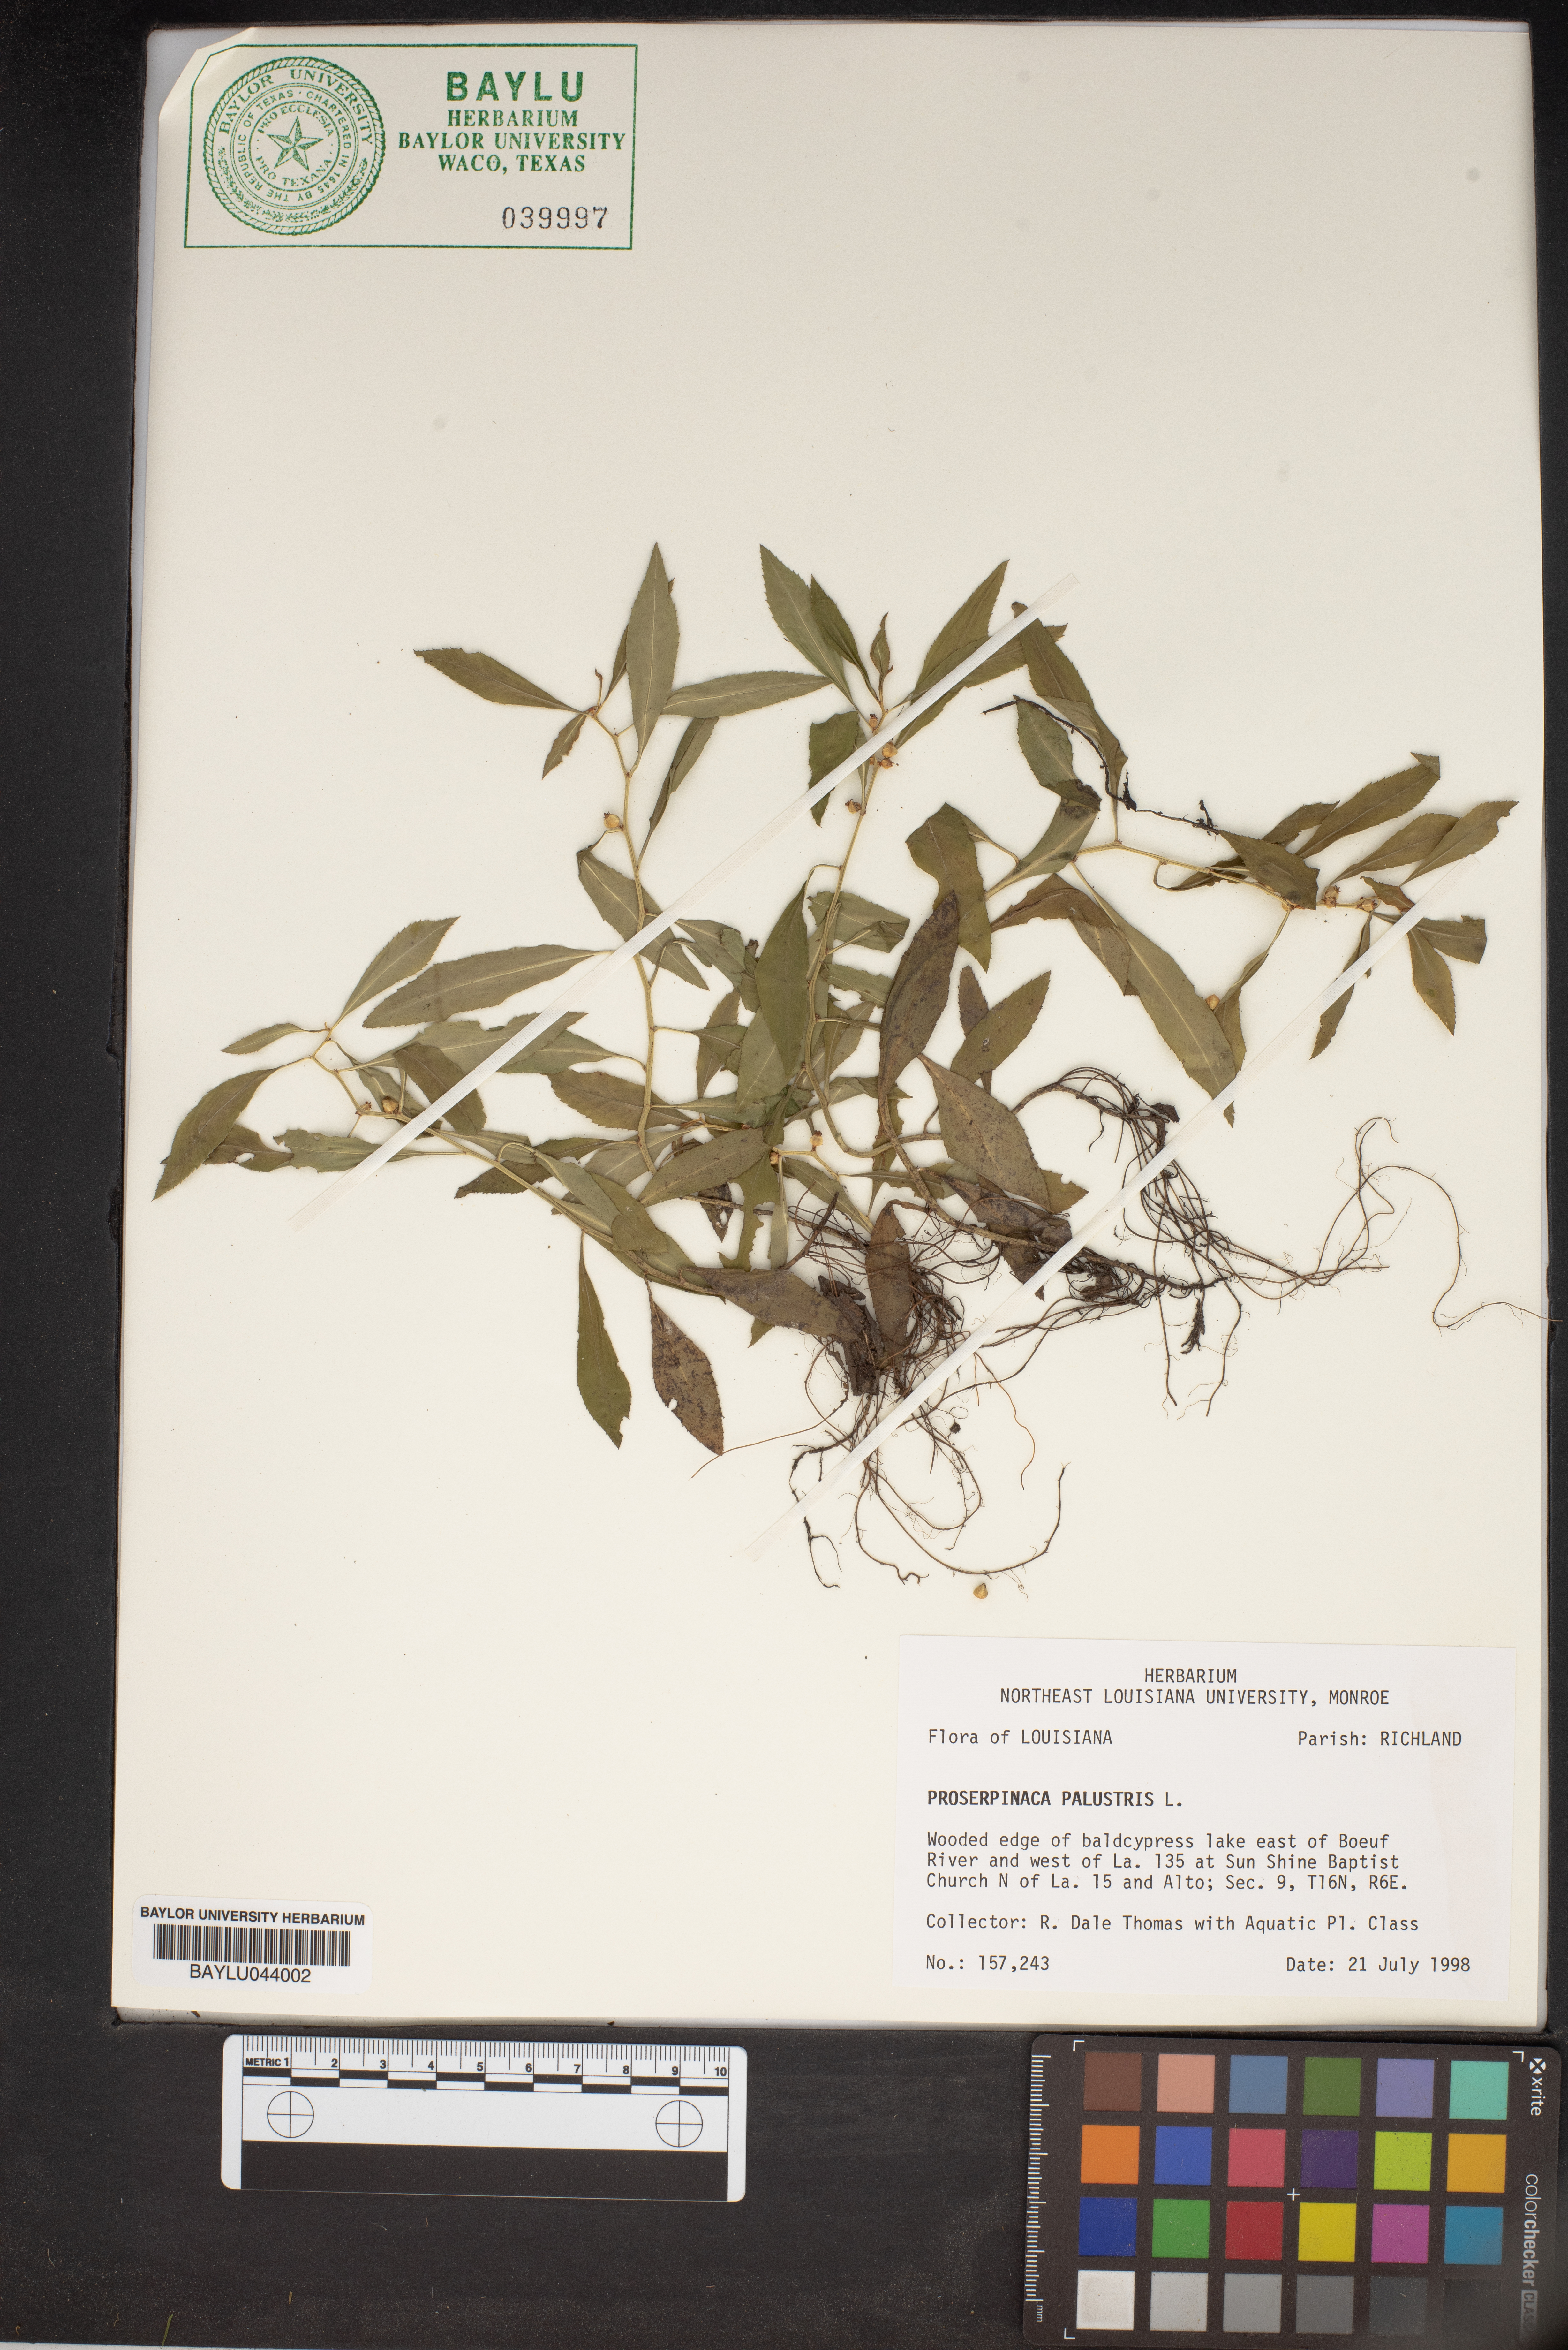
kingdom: Plantae
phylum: Tracheophyta
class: Magnoliopsida
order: Saxifragales
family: Haloragaceae
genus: Proserpinaca
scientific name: Proserpinaca palustris
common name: Marsh mermaidweed
